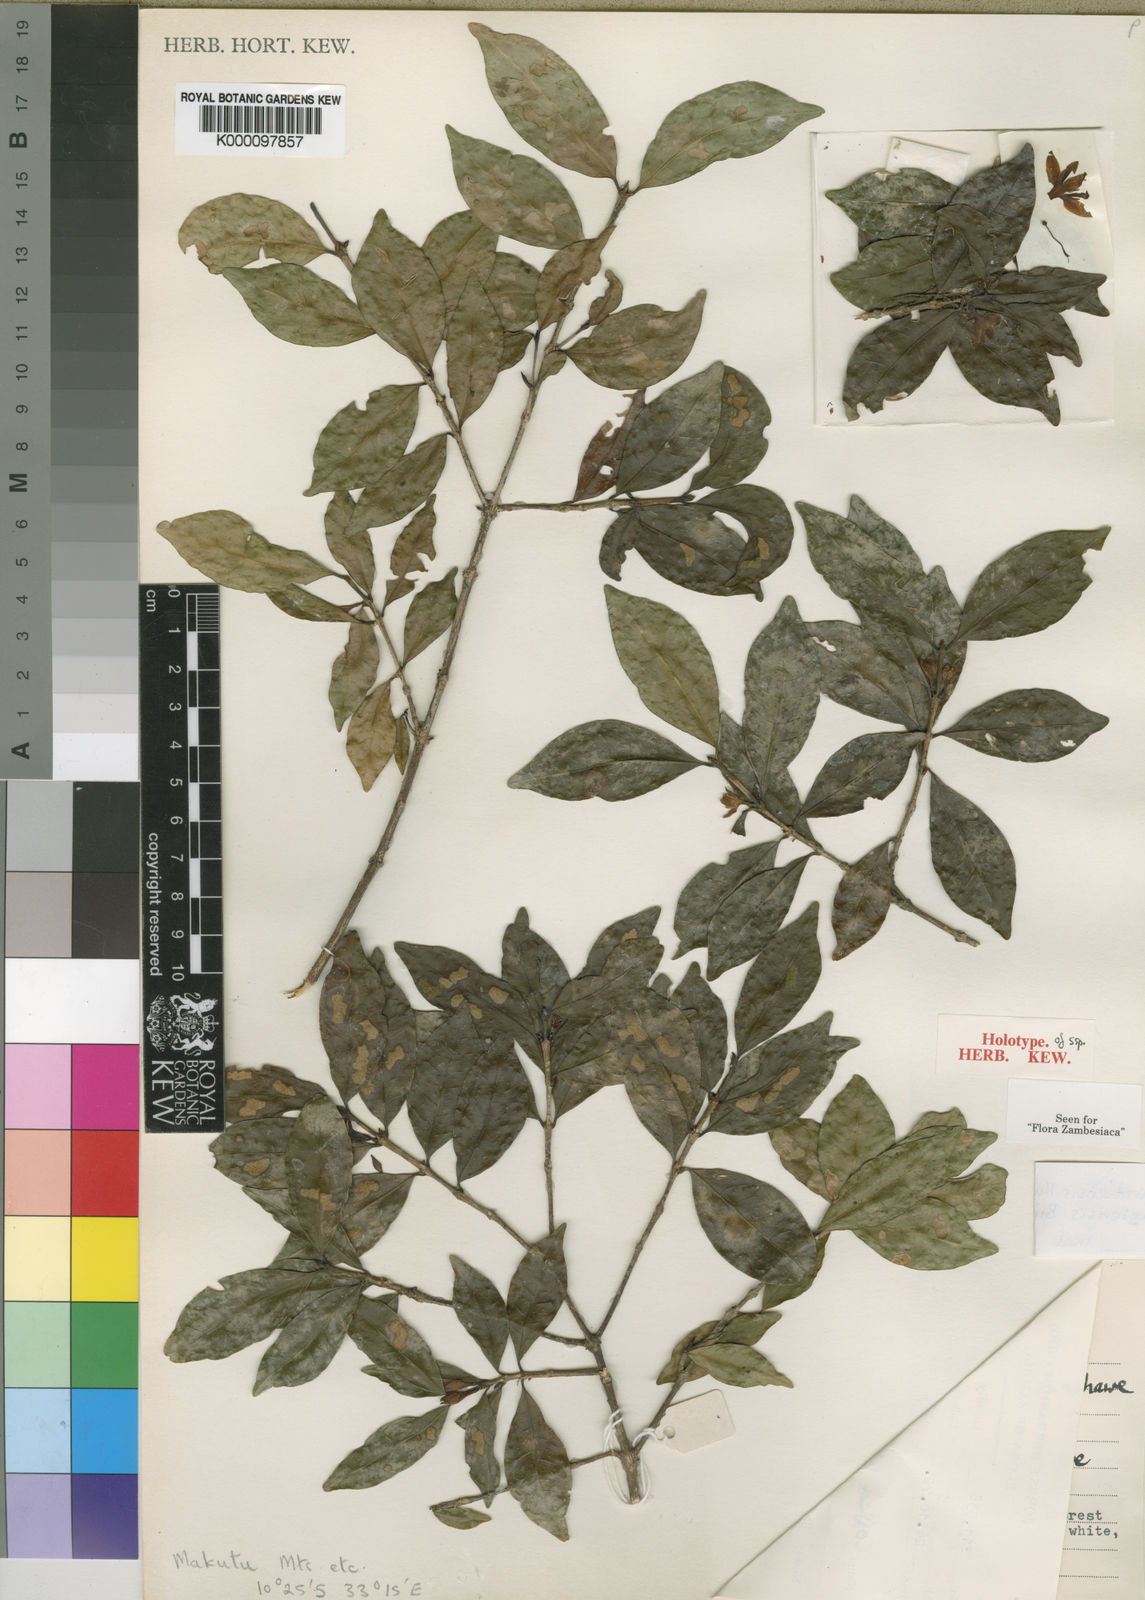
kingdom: Plantae
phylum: Tracheophyta
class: Magnoliopsida
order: Gentianales
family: Rubiaceae
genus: Coffea
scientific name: Coffea mufindiensis
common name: Wild coffee
